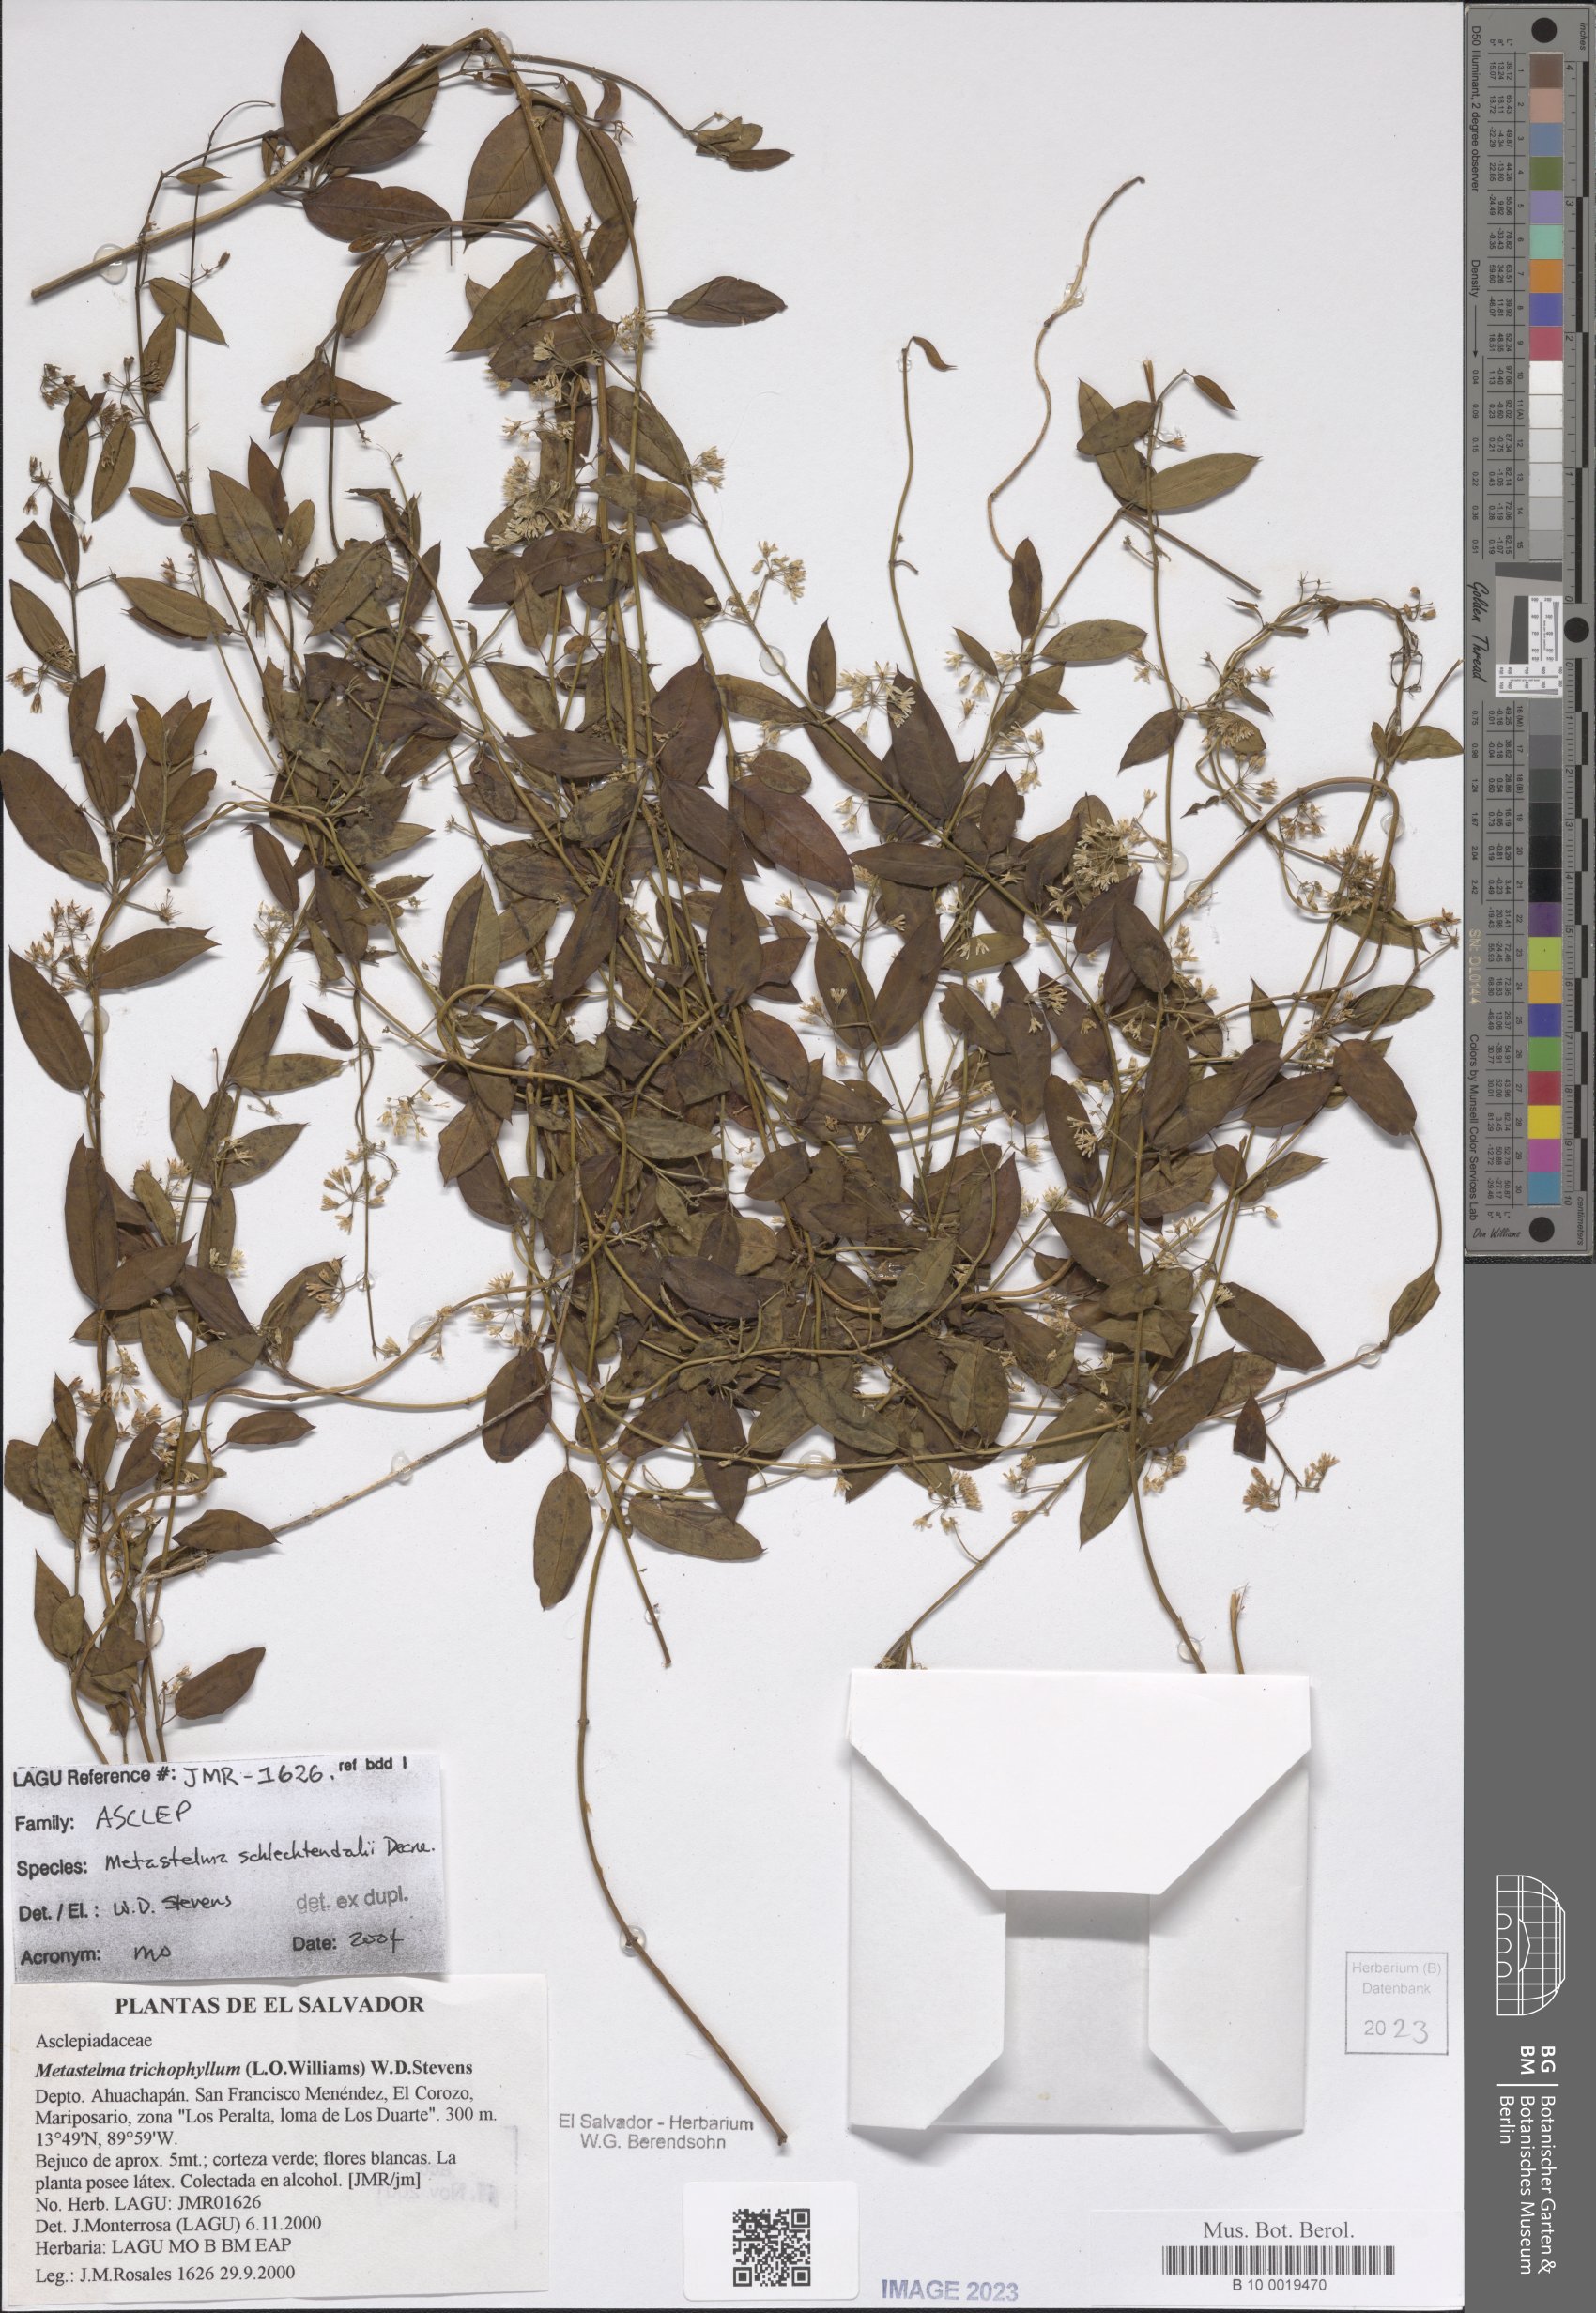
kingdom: Plantae
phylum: Tracheophyta
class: Magnoliopsida
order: Gentianales
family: Apocynaceae
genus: Metastelma
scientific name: Metastelma schlechtendalii
